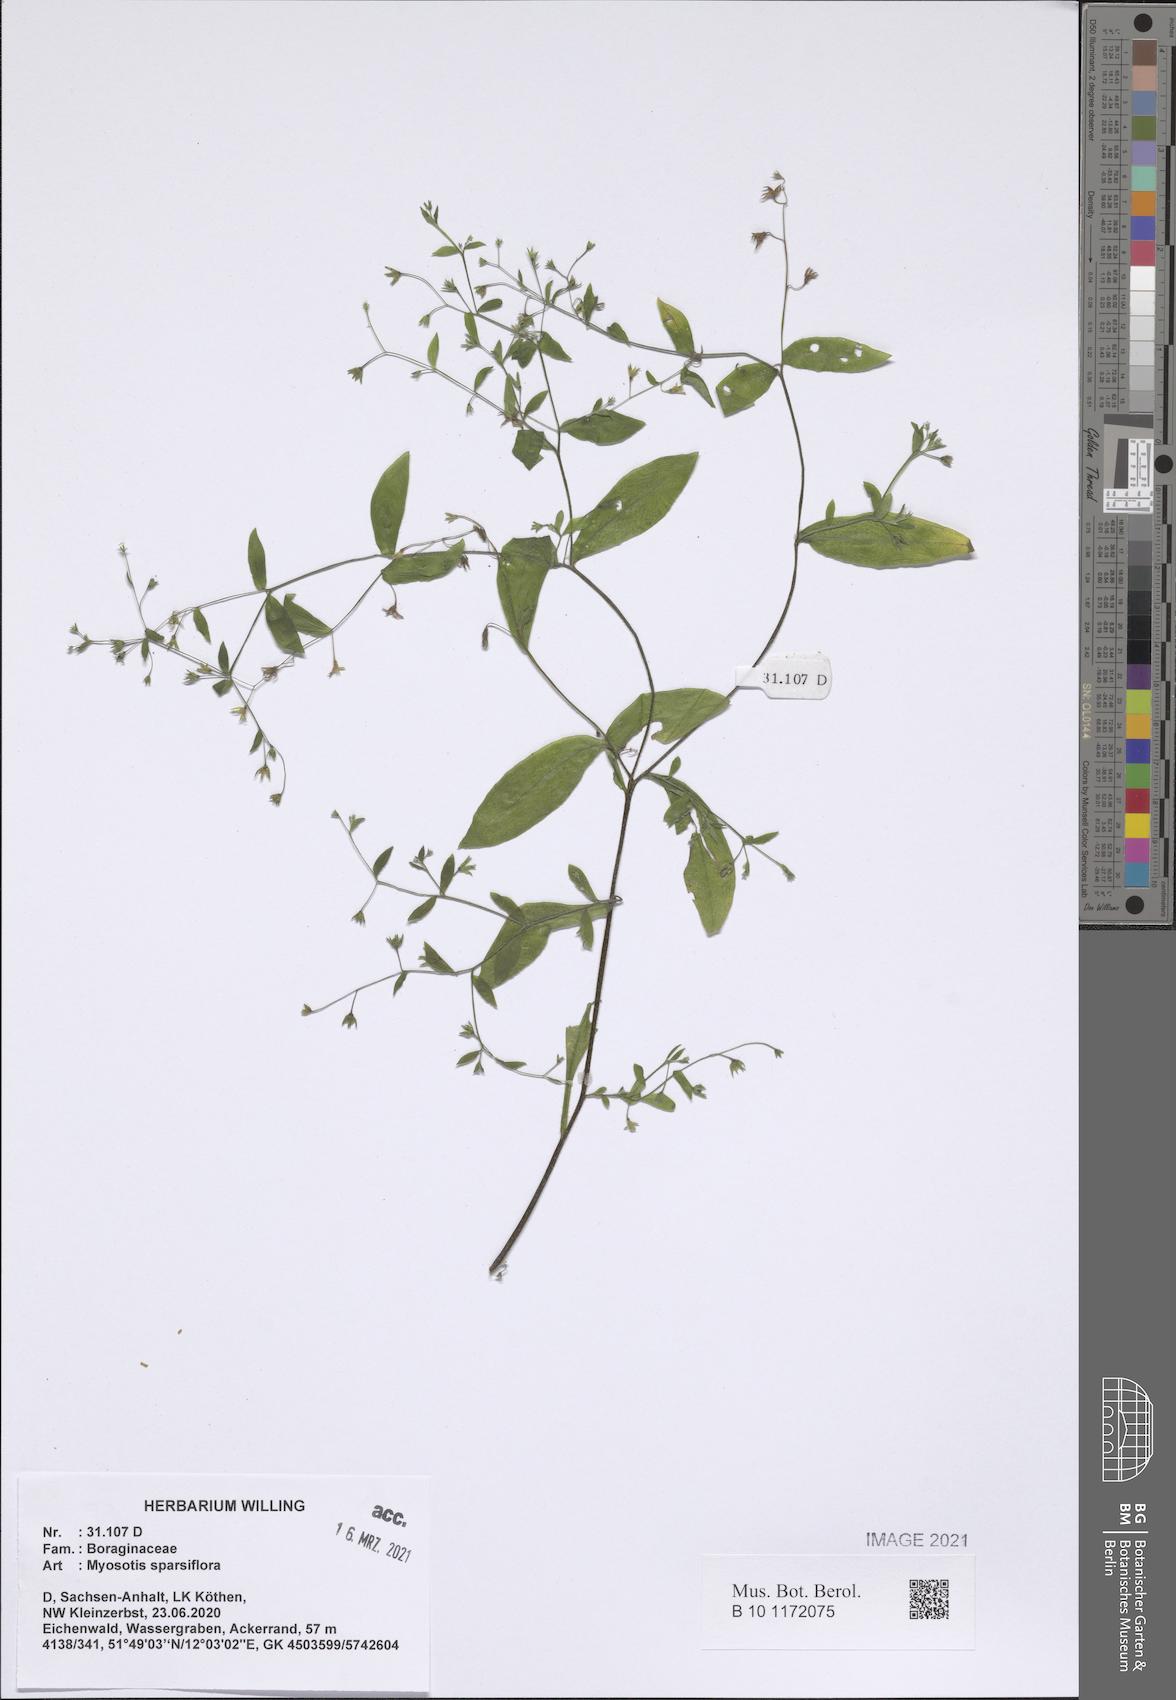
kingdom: Plantae
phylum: Tracheophyta
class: Magnoliopsida
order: Boraginales
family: Boraginaceae
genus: Myosotis
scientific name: Myosotis sparsiflora
